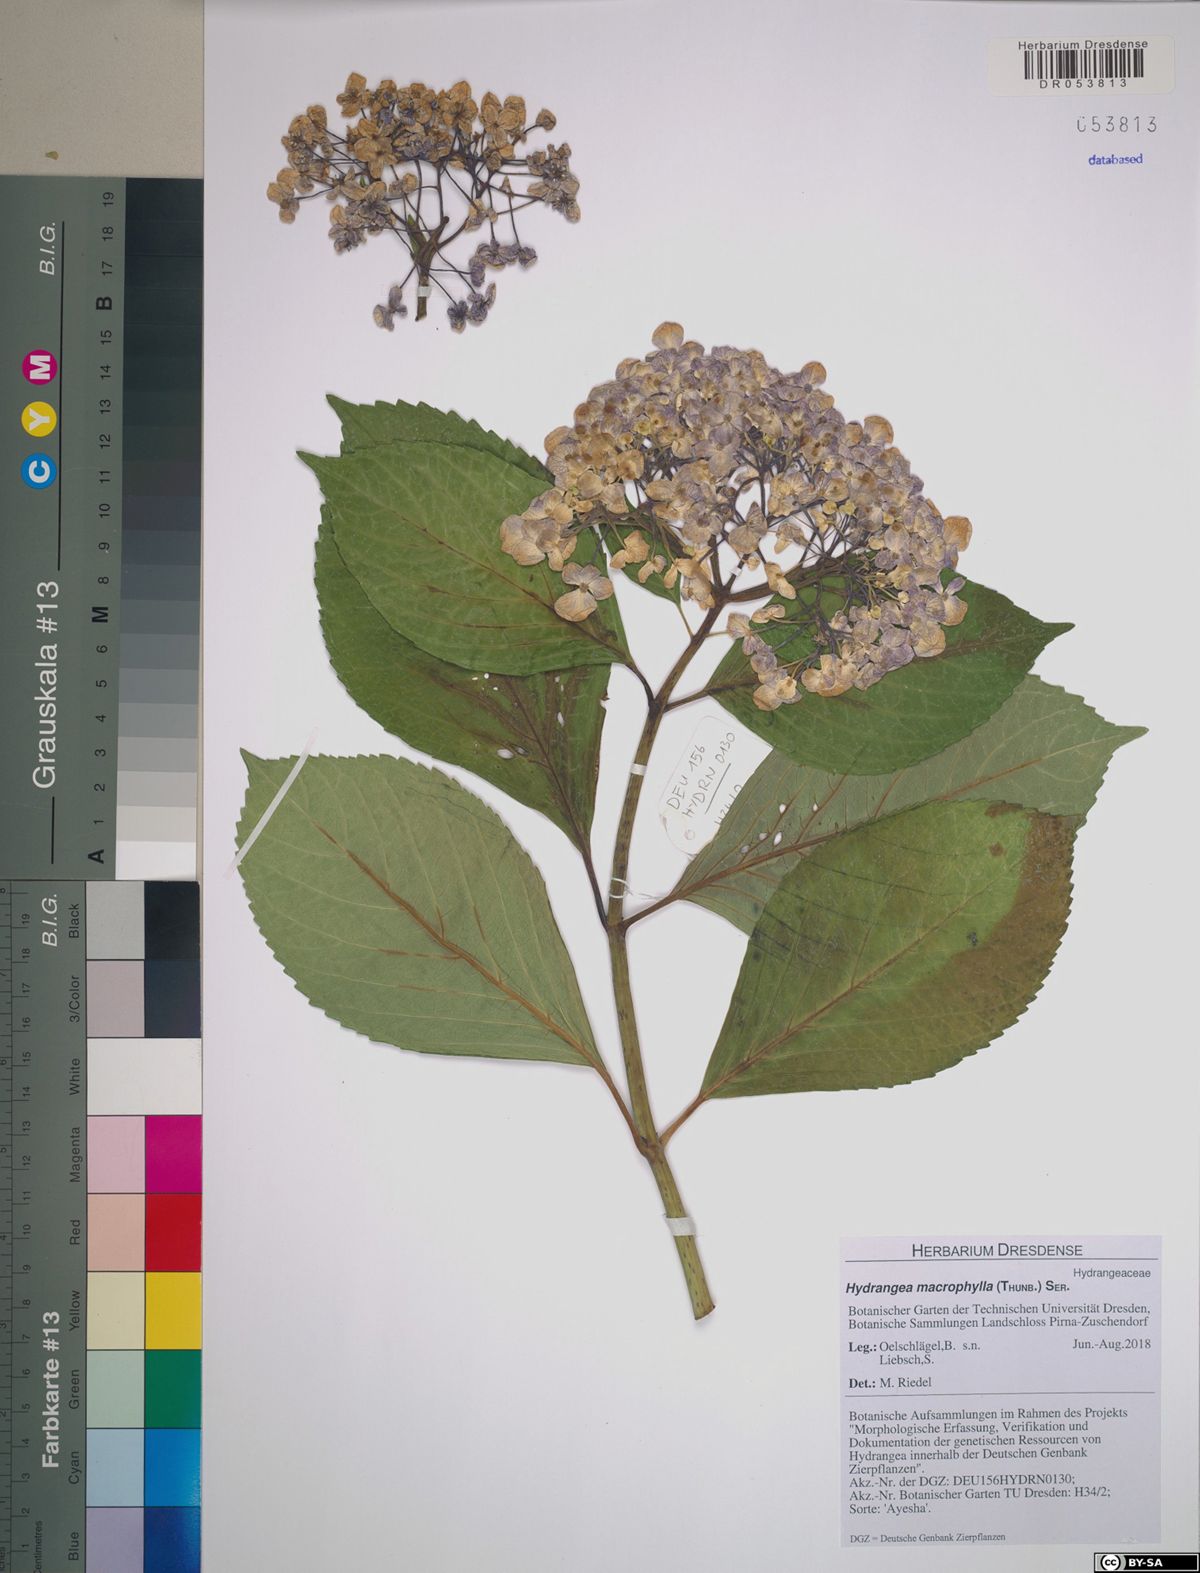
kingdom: Plantae
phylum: Tracheophyta
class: Magnoliopsida
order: Cornales
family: Hydrangeaceae
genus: Hydrangea
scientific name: Hydrangea macrophylla
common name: Hydrangea
